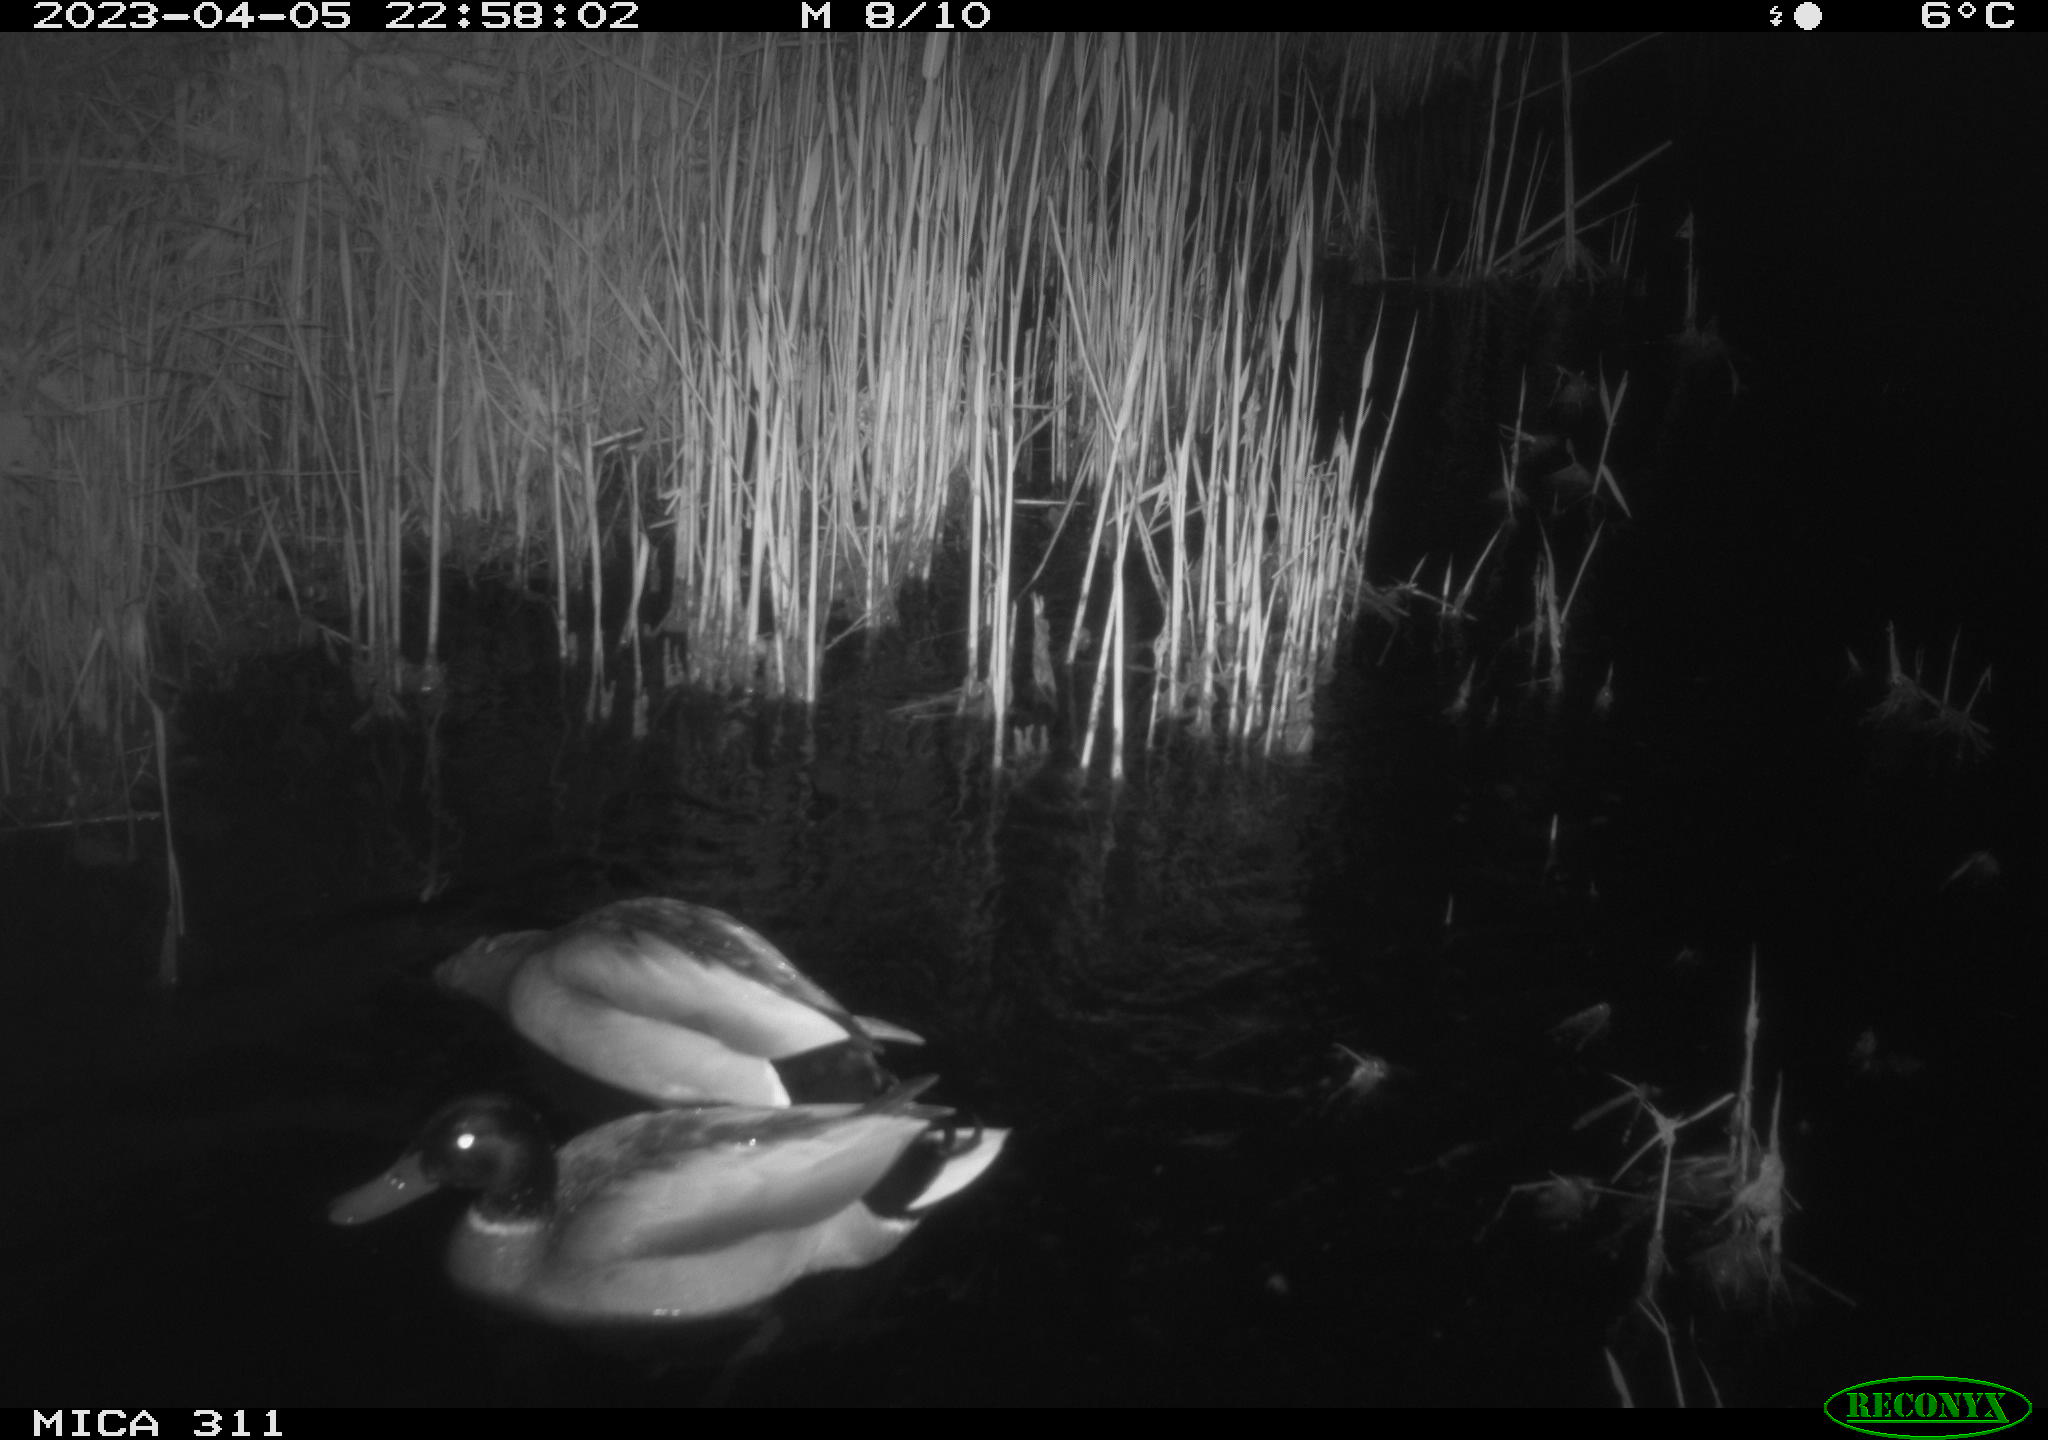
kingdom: Animalia
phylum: Chordata
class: Aves
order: Anseriformes
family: Anatidae
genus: Anas
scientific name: Anas
